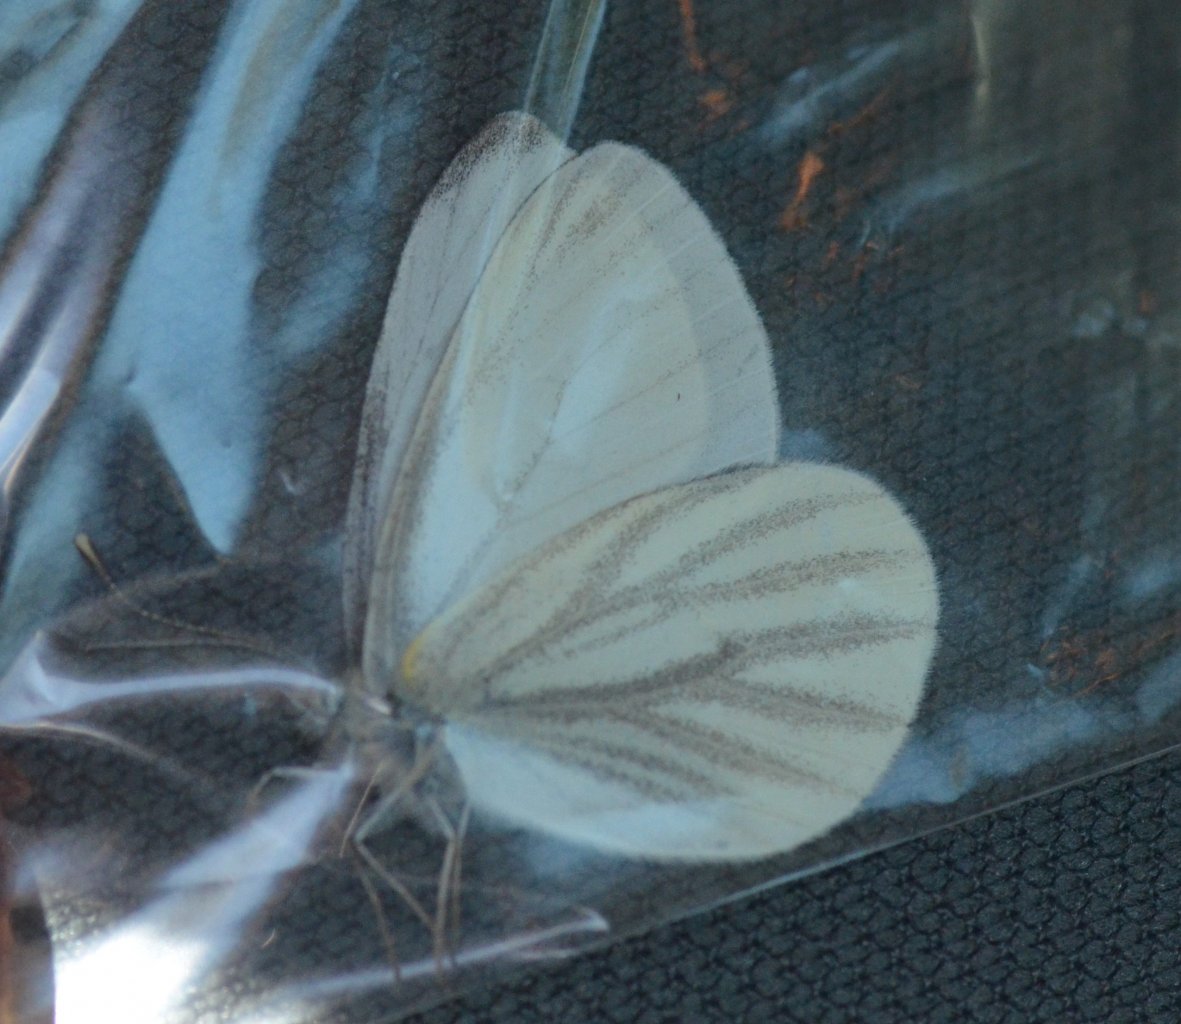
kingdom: Animalia
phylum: Arthropoda
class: Insecta
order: Lepidoptera
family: Pieridae
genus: Pieris
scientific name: Pieris virginiensis
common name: West Virginia White
